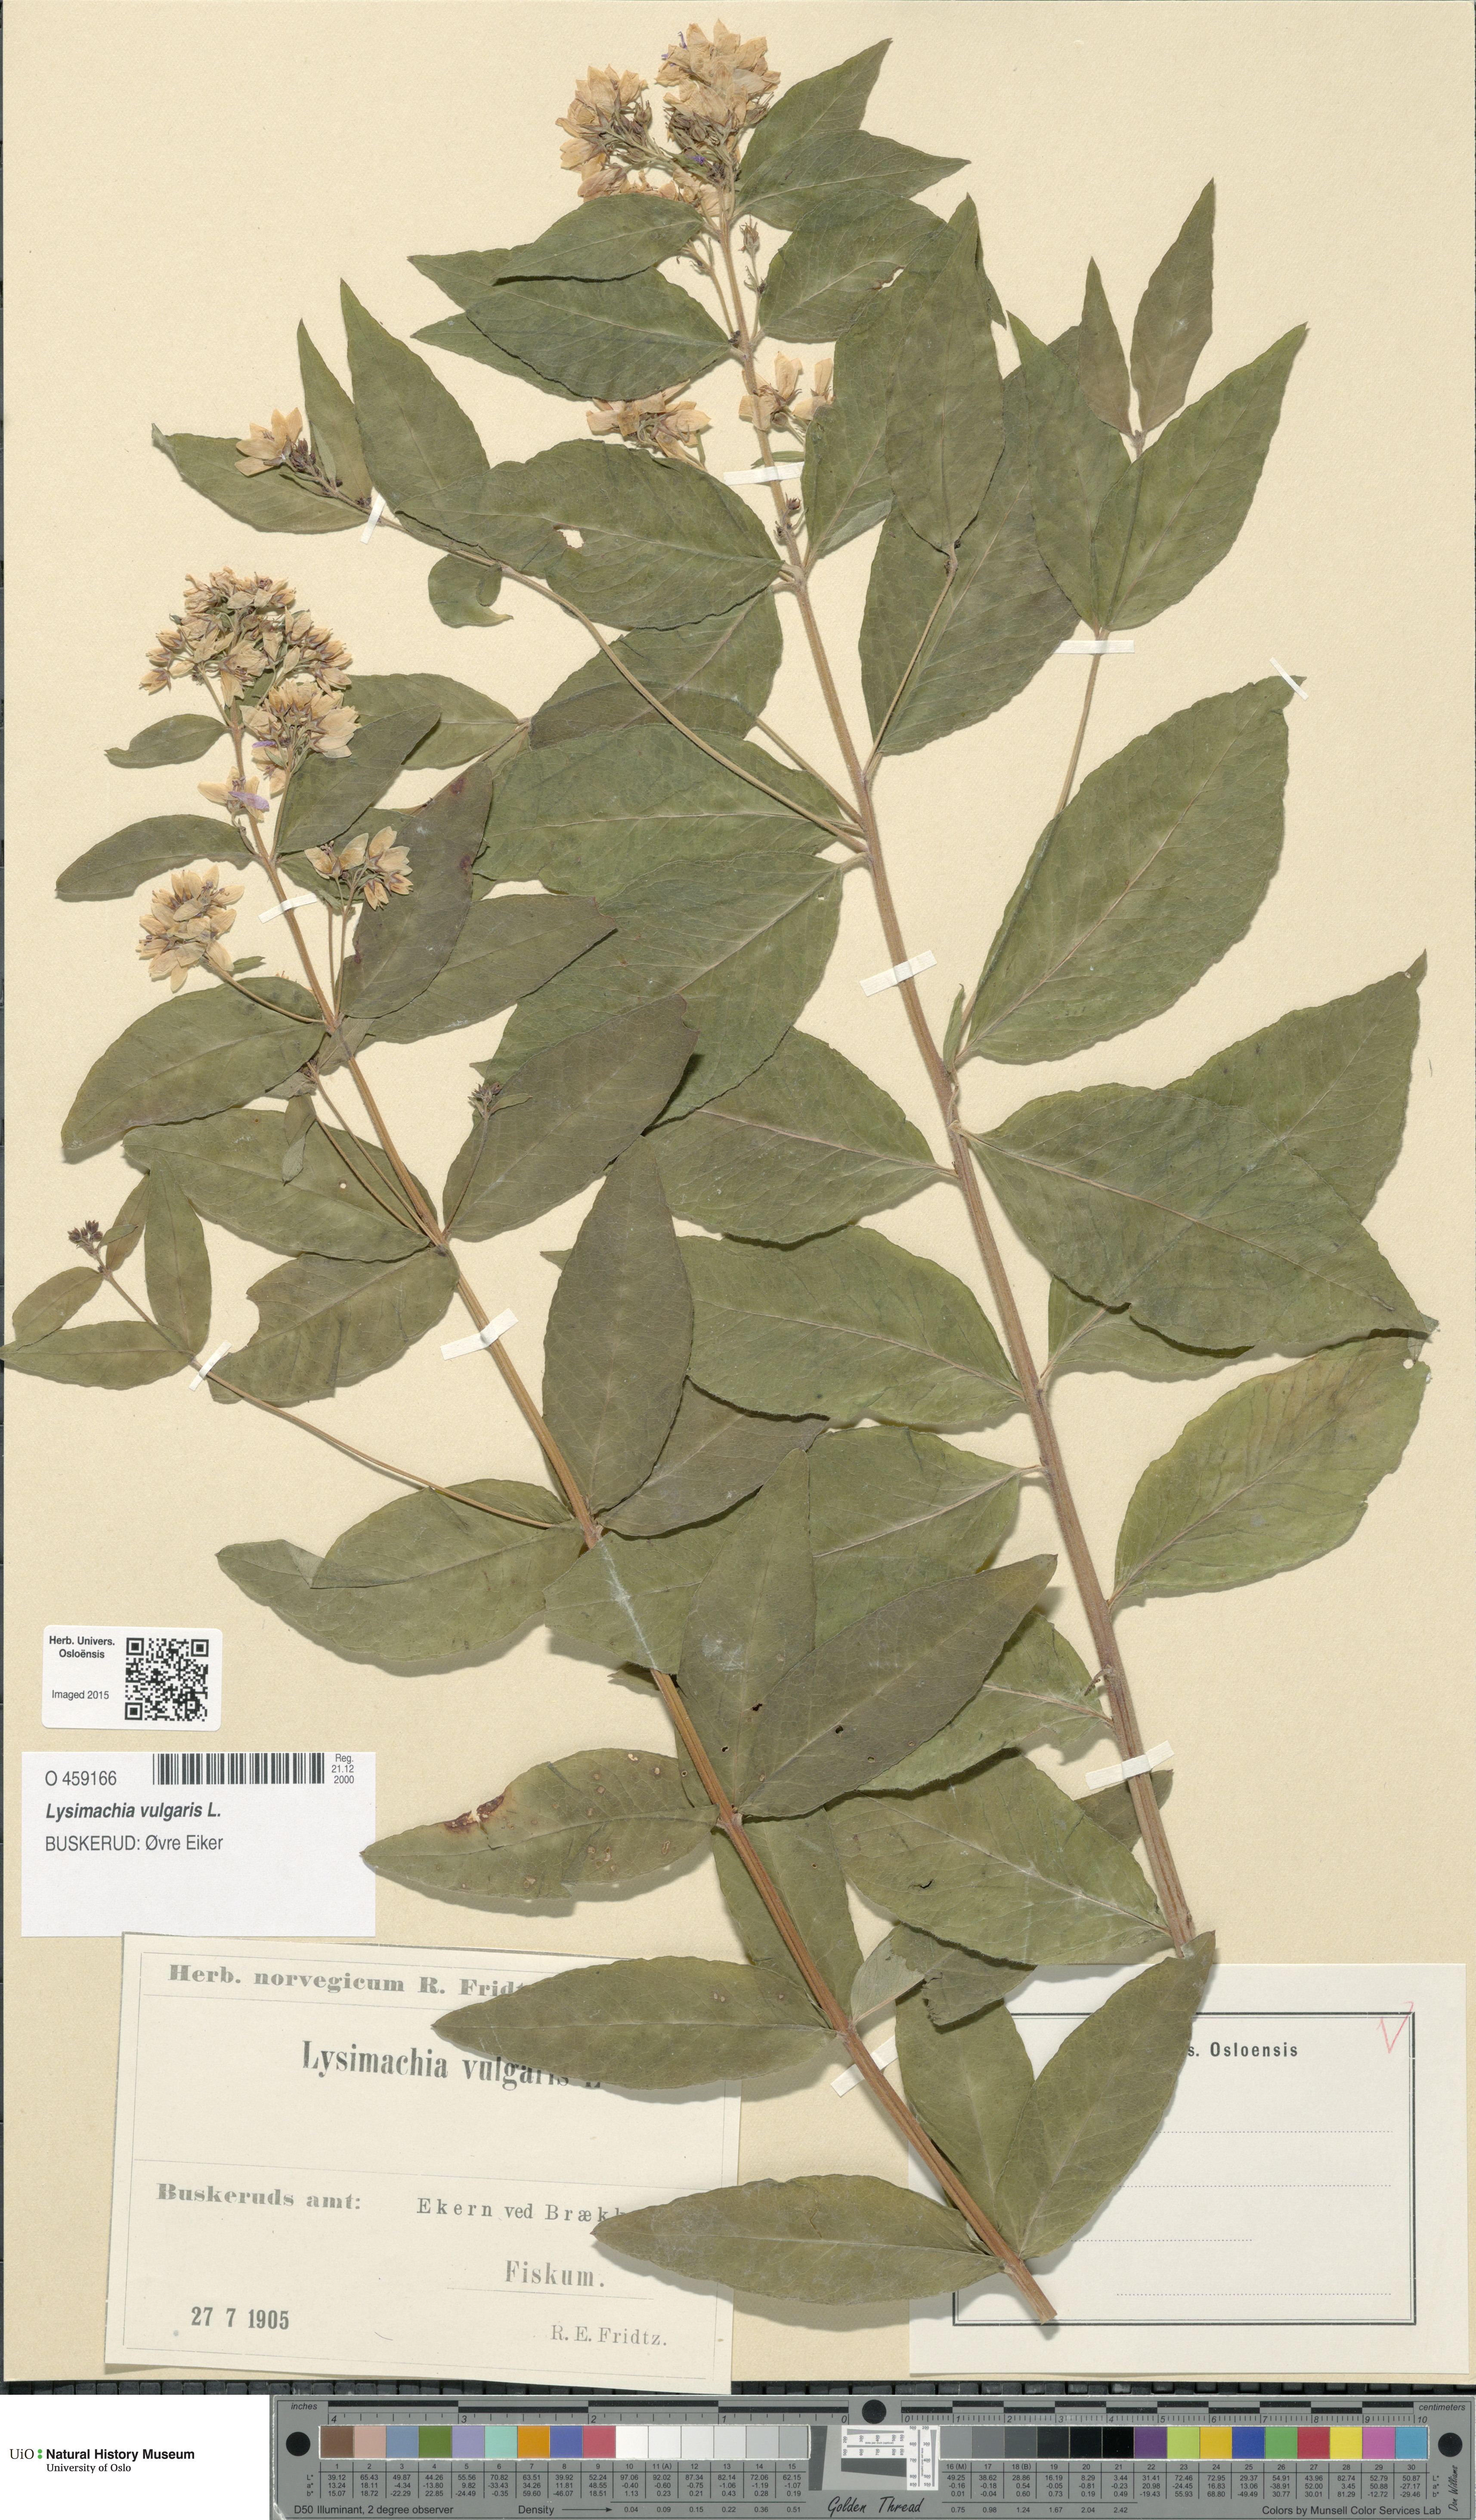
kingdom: Plantae
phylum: Tracheophyta
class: Magnoliopsida
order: Ericales
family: Primulaceae
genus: Lysimachia
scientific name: Lysimachia vulgaris
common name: Yellow loosestrife
